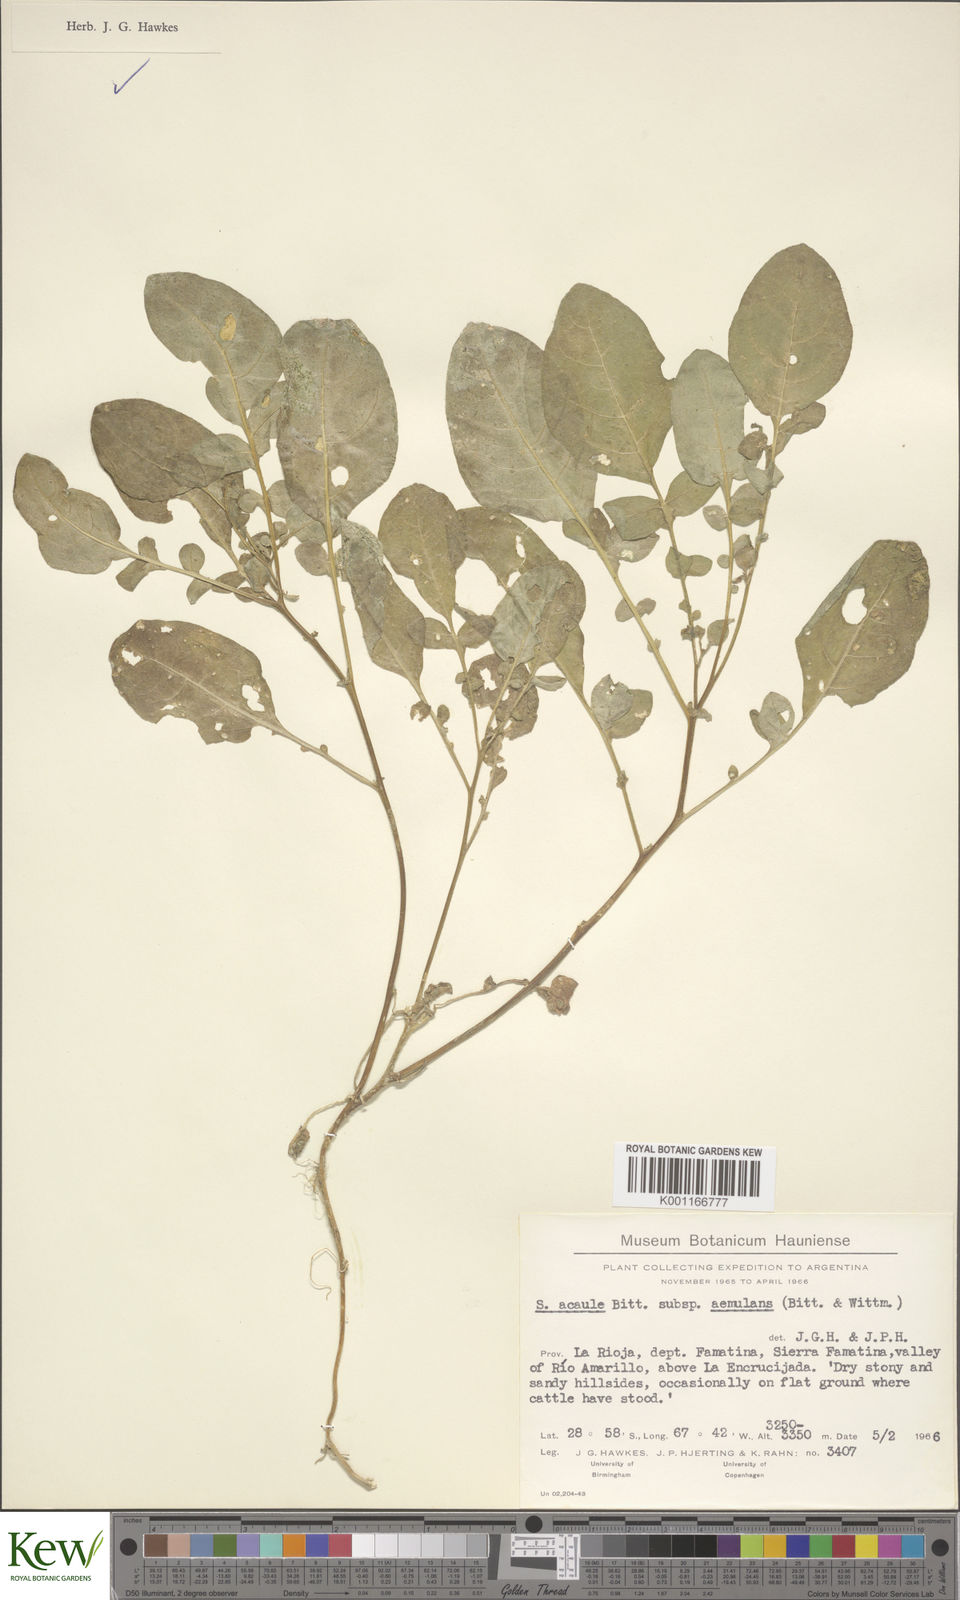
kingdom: Plantae
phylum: Tracheophyta
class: Magnoliopsida
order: Solanales
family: Solanaceae
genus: Solanum
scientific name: Solanum aemulans
